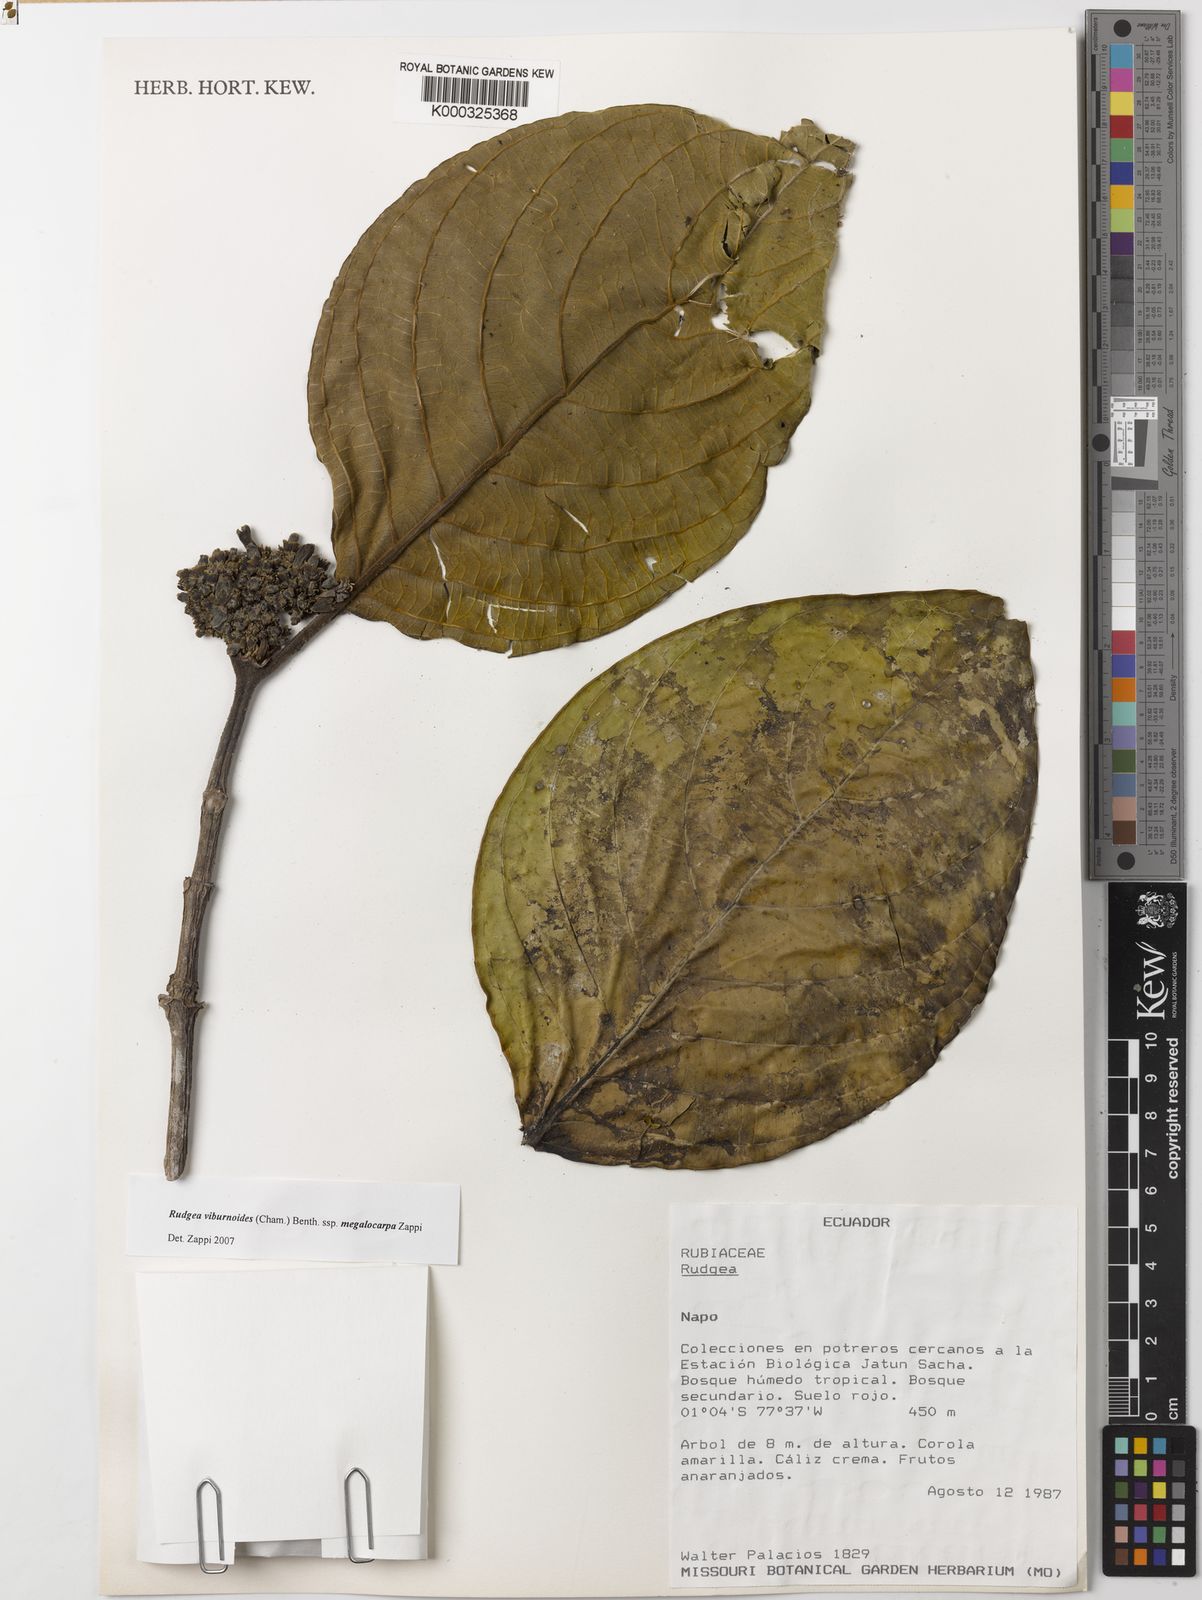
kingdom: Plantae
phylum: Tracheophyta
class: Magnoliopsida
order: Gentianales
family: Rubiaceae
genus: Rudgea
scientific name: Rudgea viburnoides
